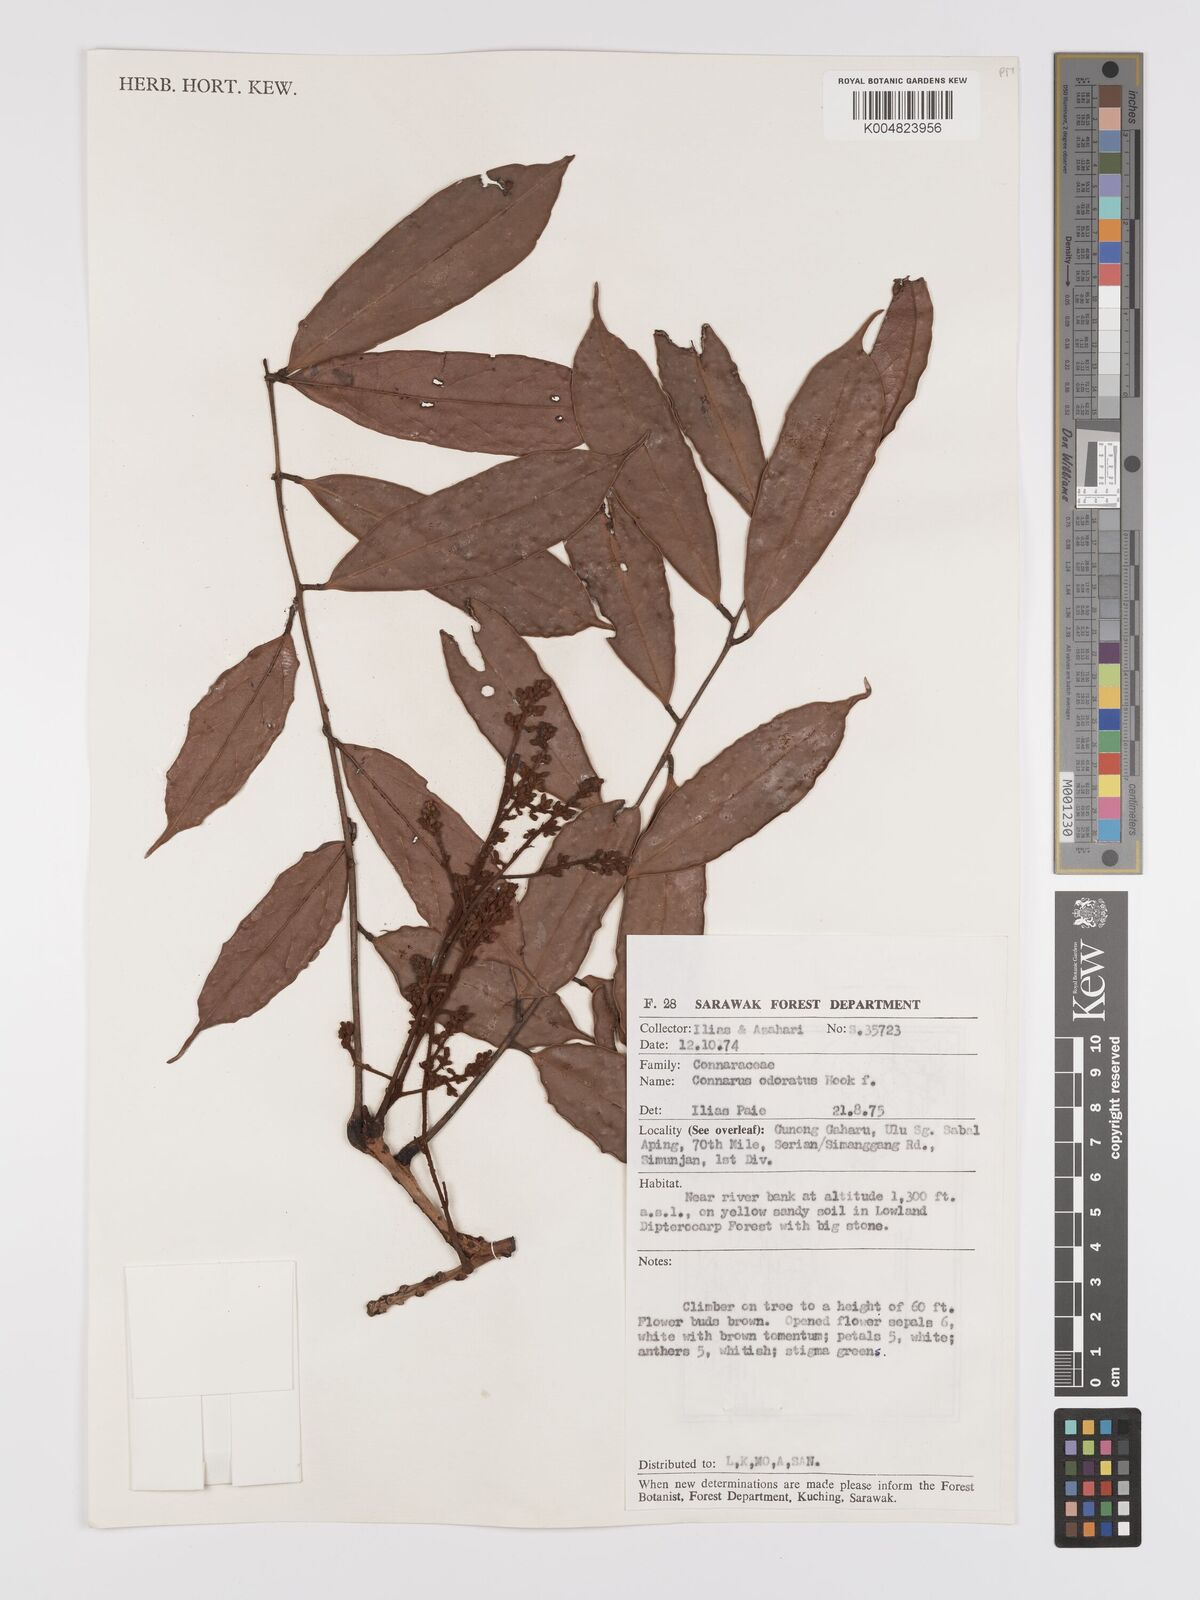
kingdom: Plantae
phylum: Tracheophyta
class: Magnoliopsida
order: Oxalidales
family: Connaraceae
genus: Connarus
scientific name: Connarus odoratus
